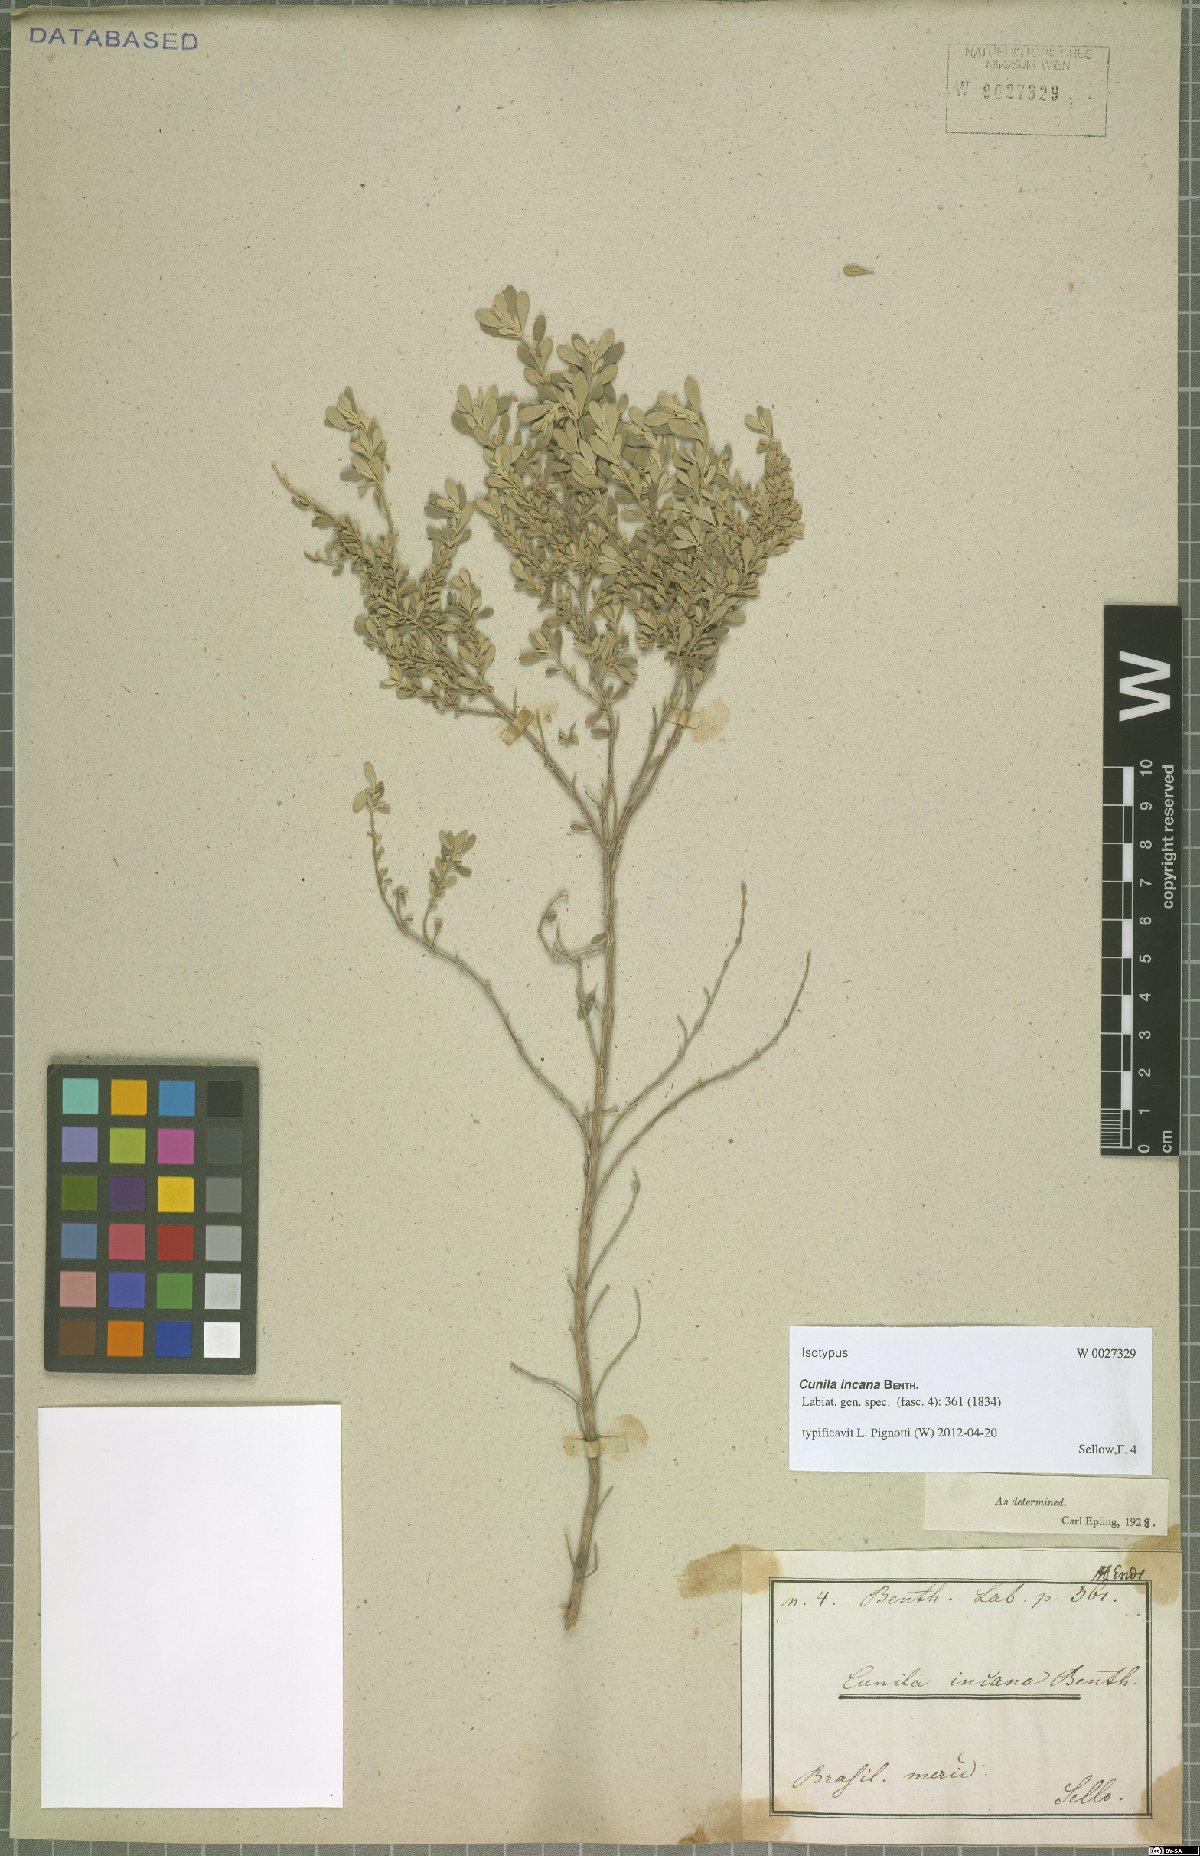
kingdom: Plantae
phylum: Tracheophyta
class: Magnoliopsida
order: Lamiales
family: Lamiaceae
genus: Cunila
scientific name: Cunila incana
